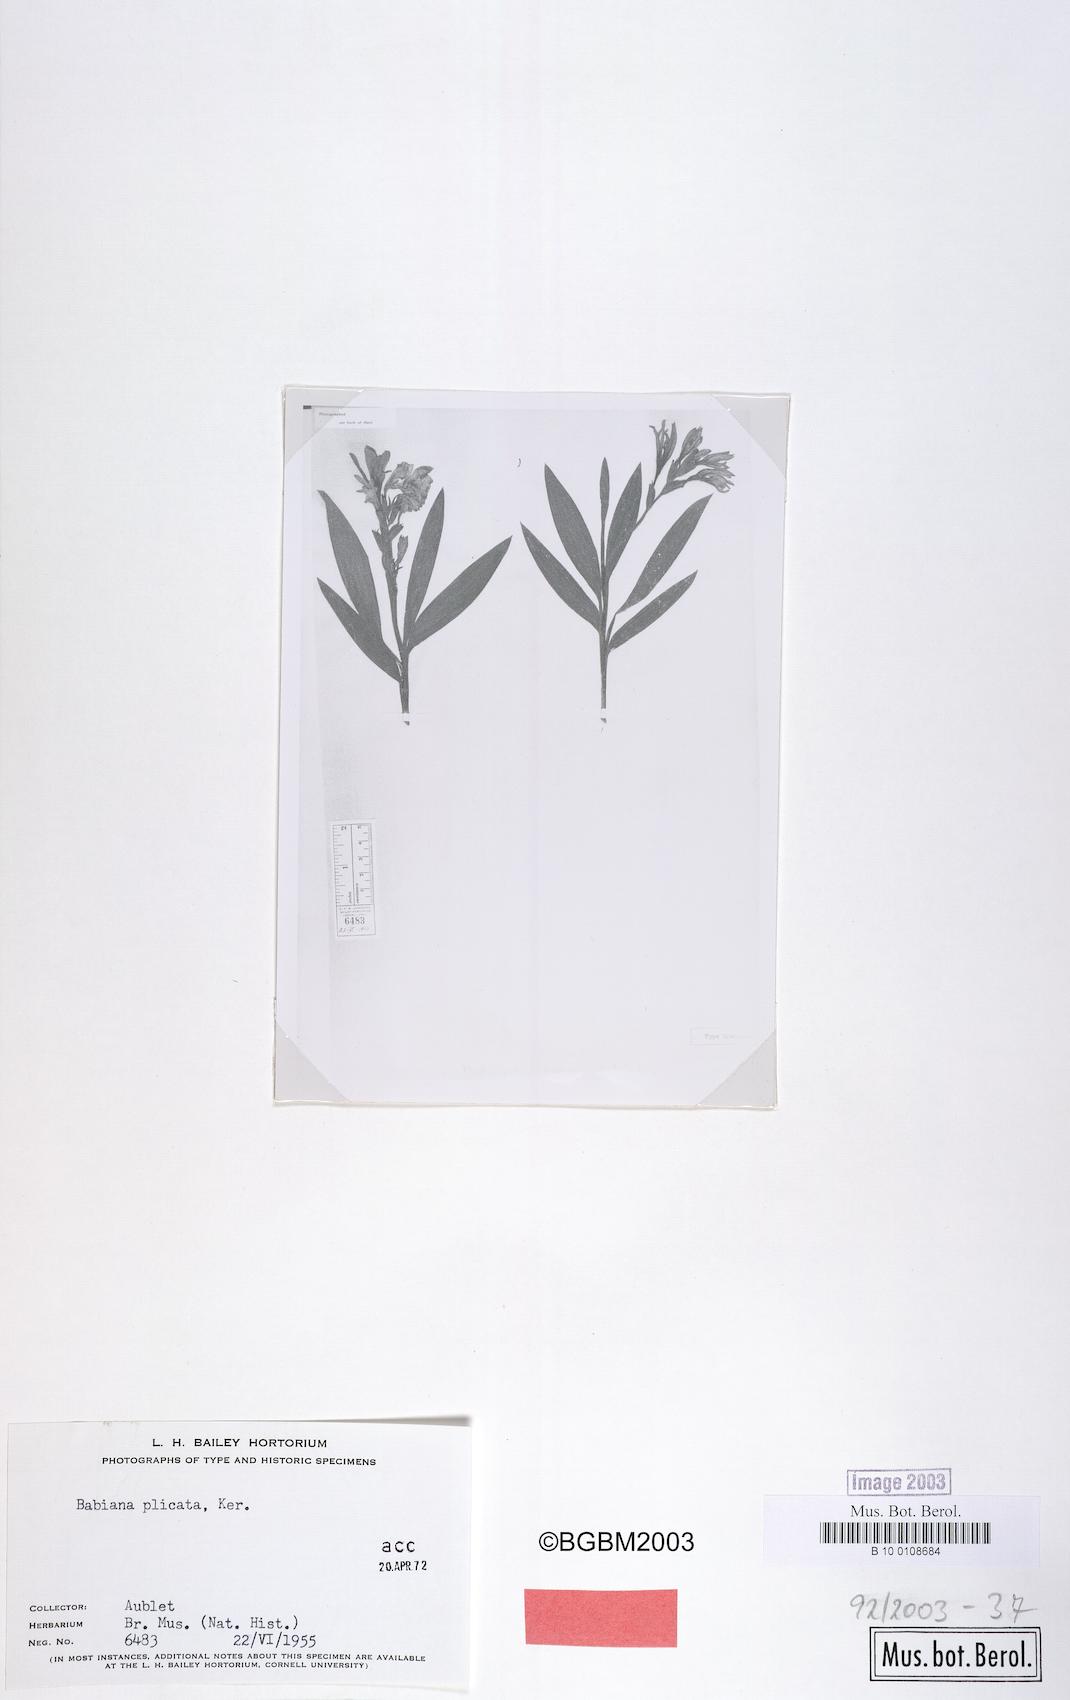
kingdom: Plantae
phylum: Tracheophyta
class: Liliopsida
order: Asparagales
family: Iridaceae
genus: Babiana
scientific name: Babiana odorata
